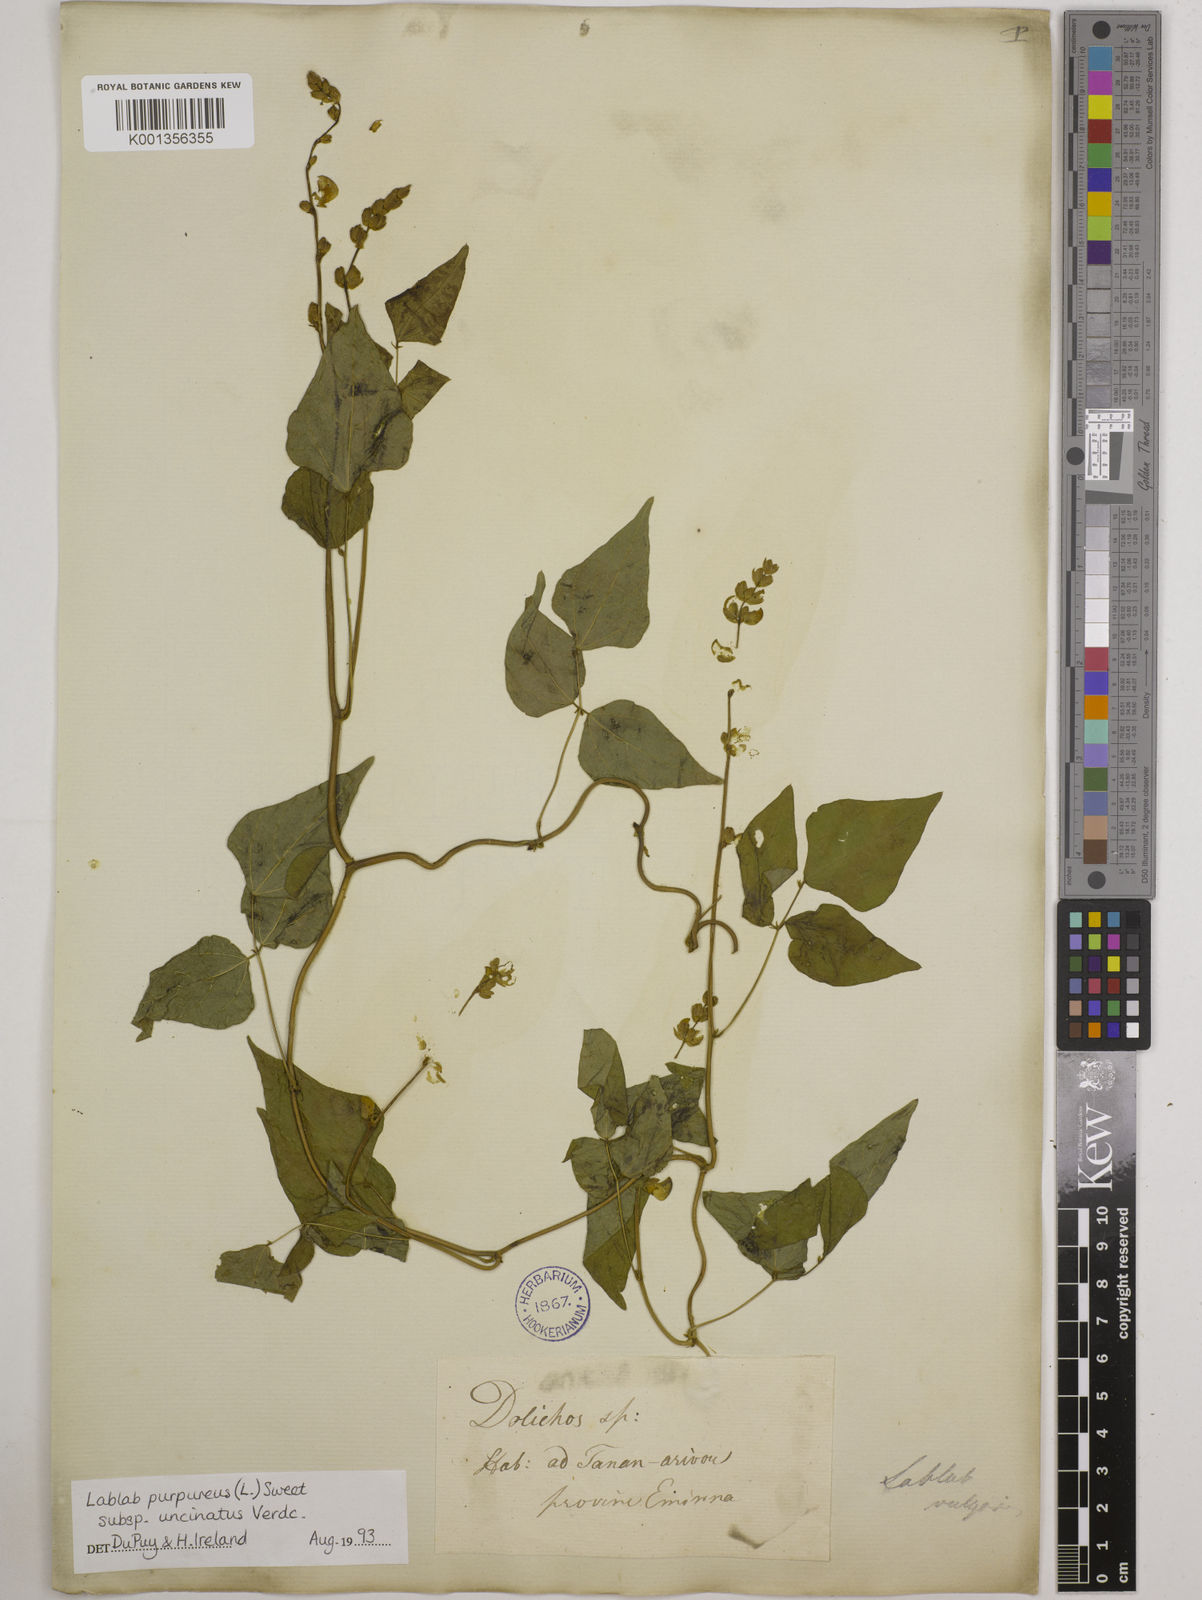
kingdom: Plantae
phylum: Tracheophyta
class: Magnoliopsida
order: Fabales
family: Fabaceae
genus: Lablab
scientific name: Lablab purpureus
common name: Lablab-bean
